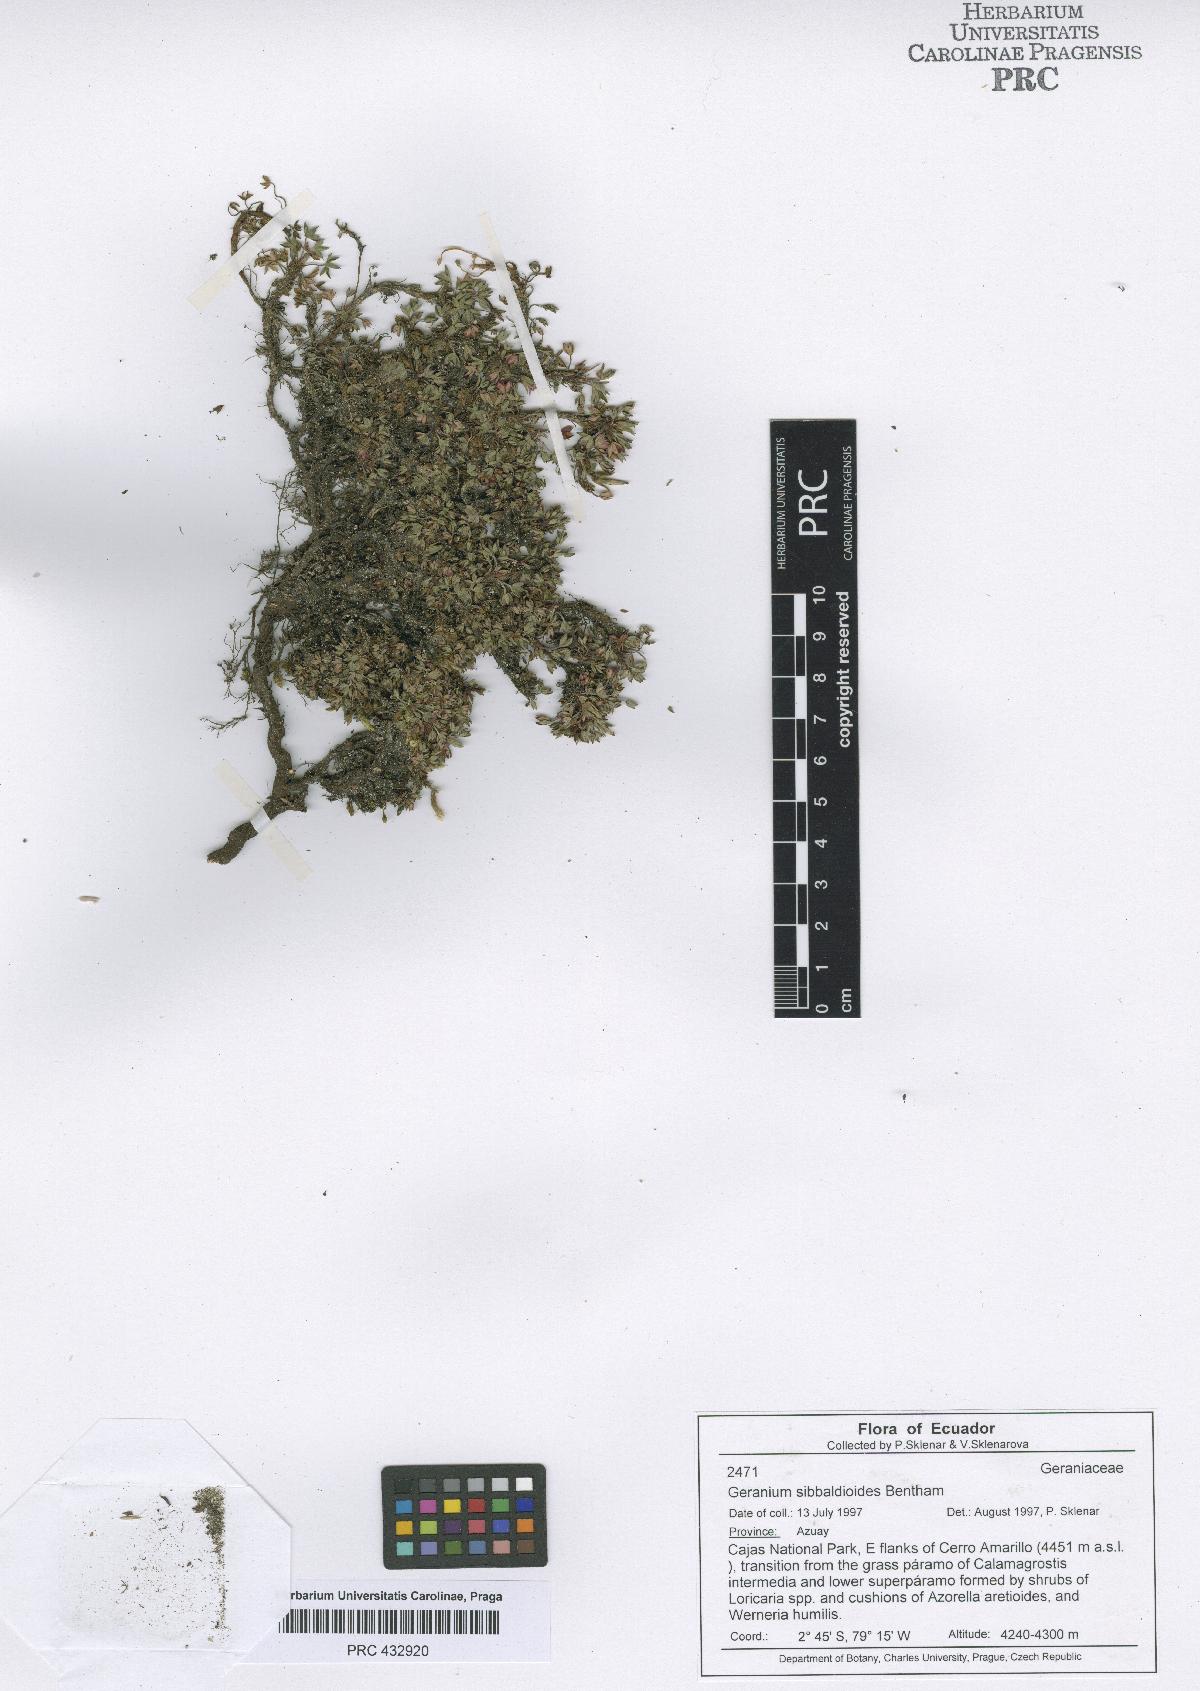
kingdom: Plantae
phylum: Tracheophyta
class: Magnoliopsida
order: Geraniales
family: Geraniaceae
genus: Geranium
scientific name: Geranium sibbaldioides
